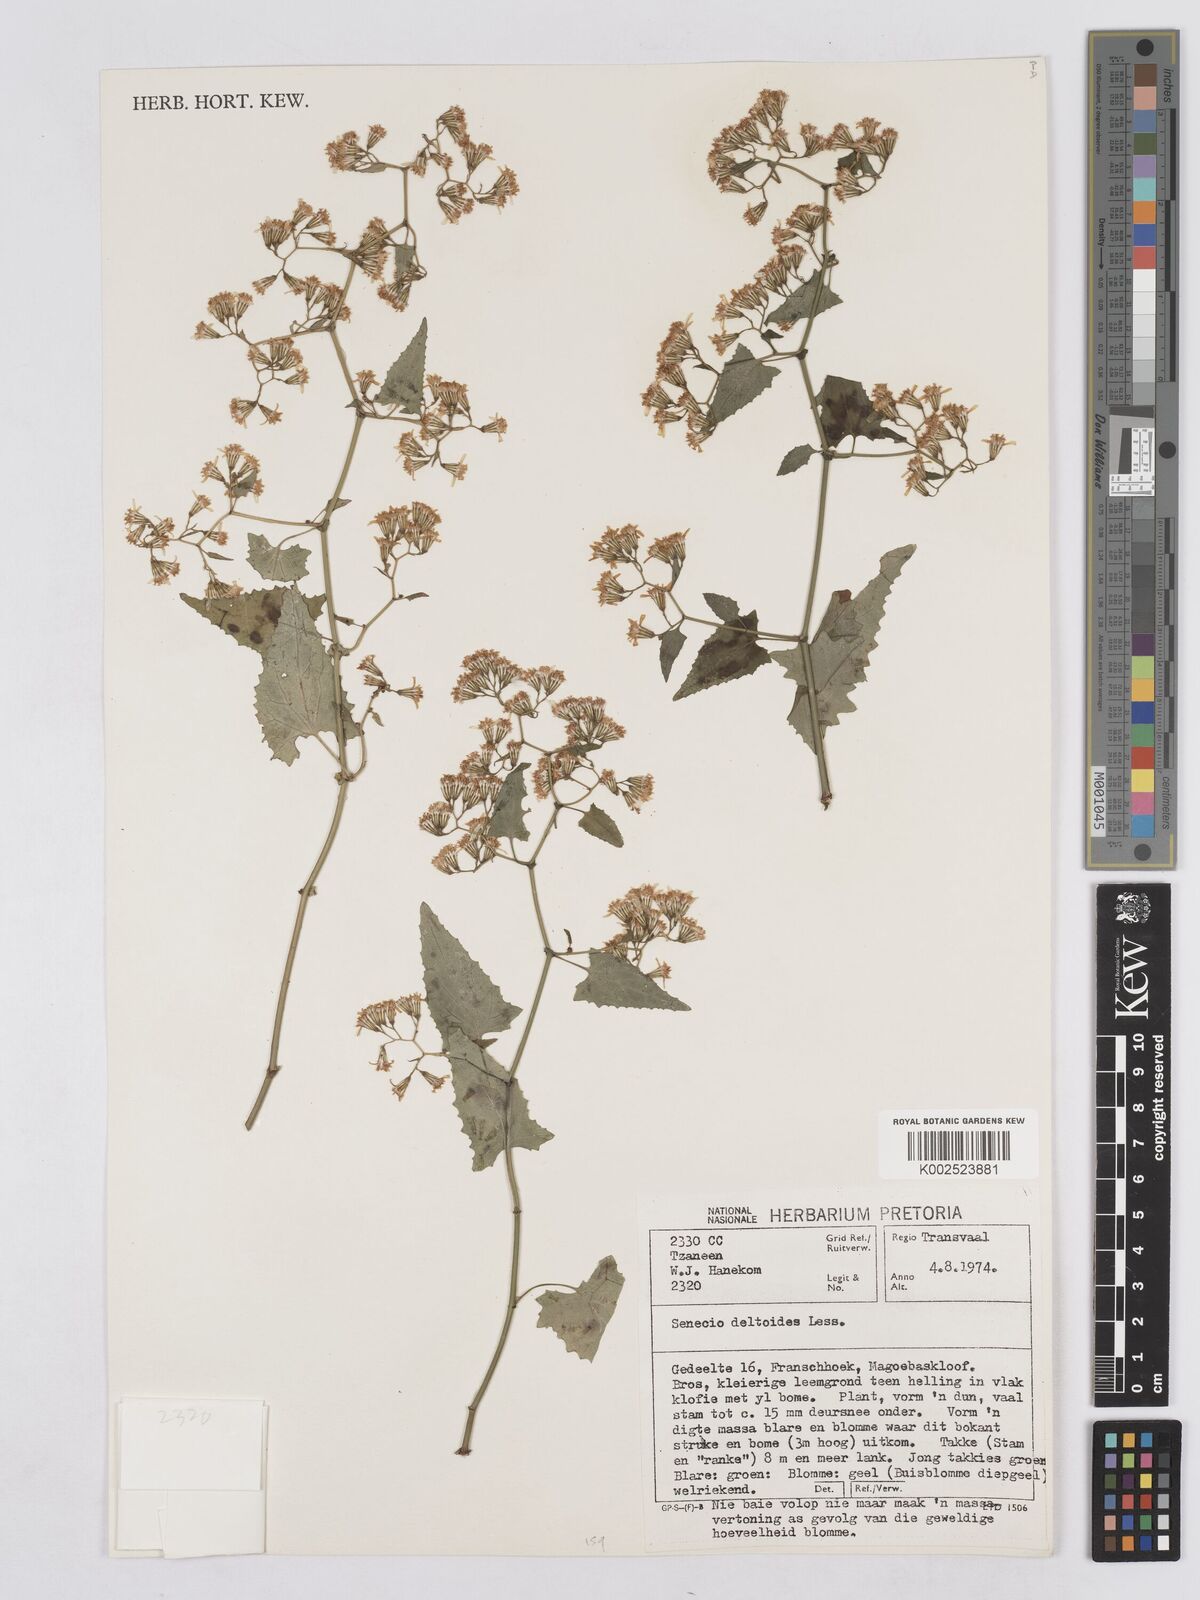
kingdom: Plantae
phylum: Tracheophyta
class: Magnoliopsida
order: Asterales
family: Asteraceae
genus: Senecio
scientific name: Senecio deltoideus
